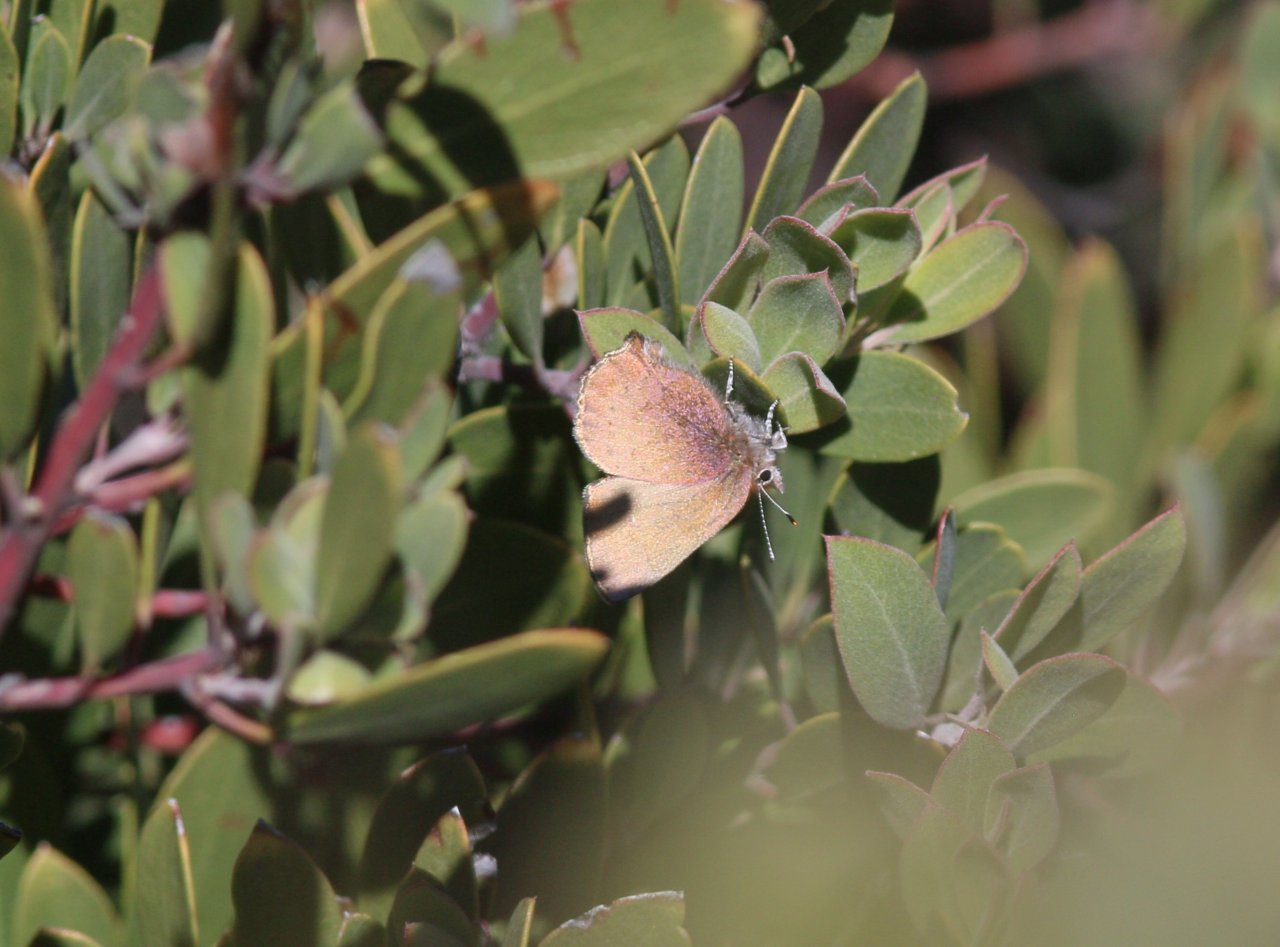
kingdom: Animalia
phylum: Arthropoda
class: Insecta
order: Lepidoptera
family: Lycaenidae
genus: Incisalia
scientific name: Incisalia irioides
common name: Brown Elfin
